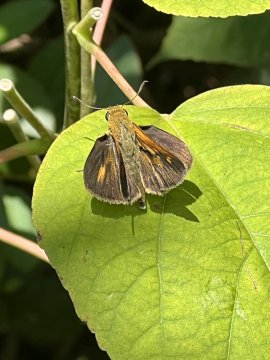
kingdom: Animalia
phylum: Arthropoda
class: Insecta
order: Lepidoptera
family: Hesperiidae
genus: Euphyes
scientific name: Euphyes dion
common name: Dion Skipper
